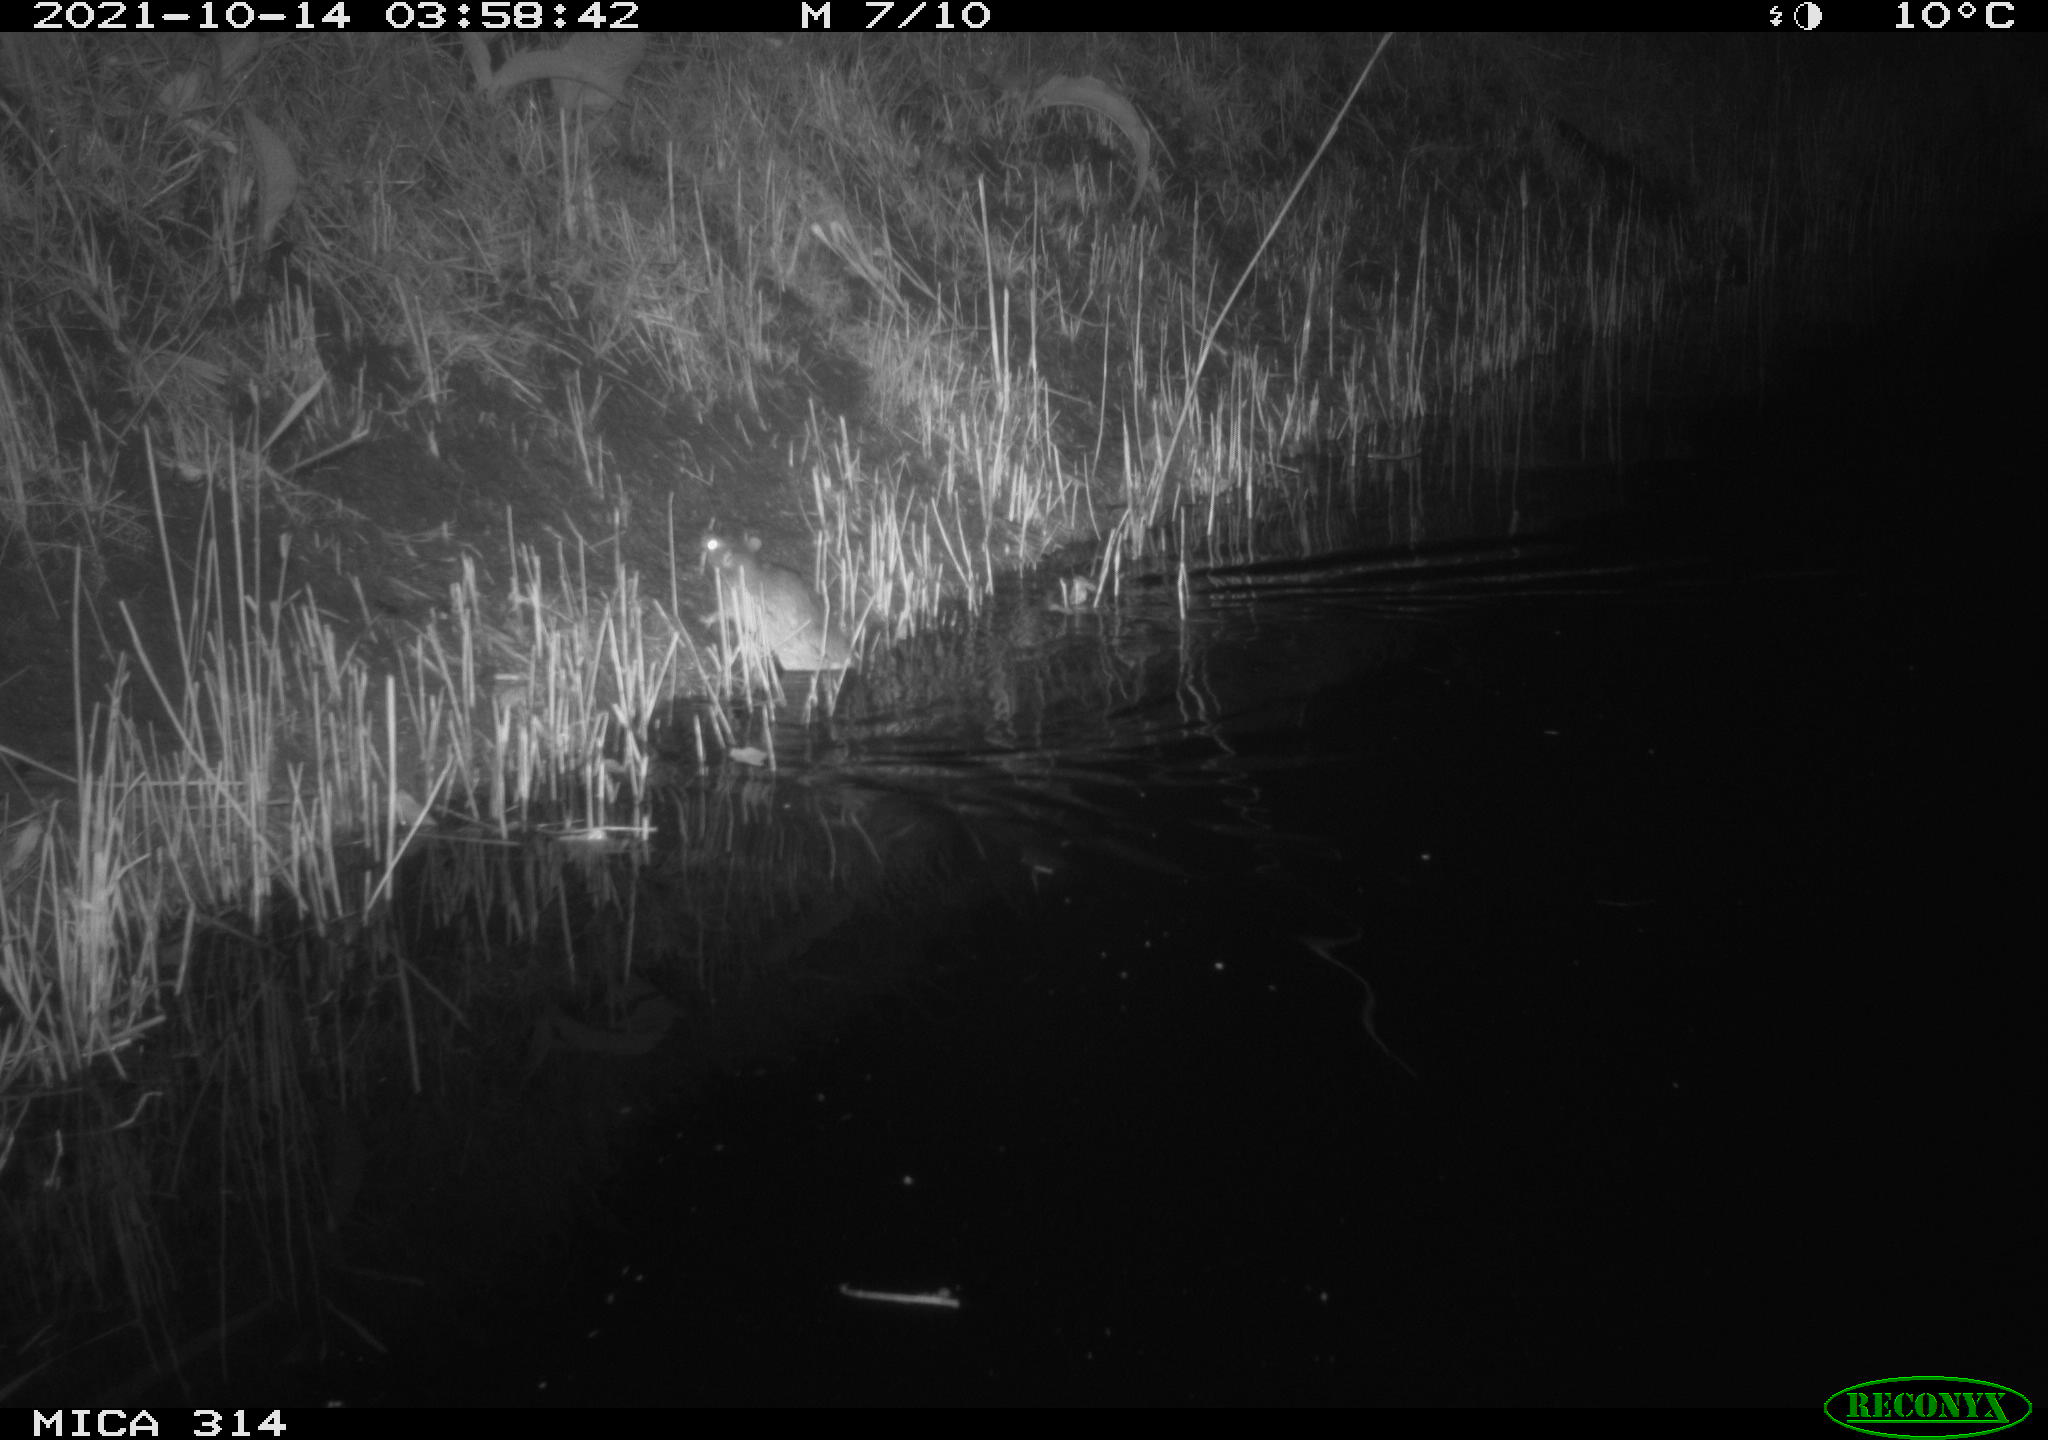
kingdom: Animalia
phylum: Chordata
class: Mammalia
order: Rodentia
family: Muridae
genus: Rattus
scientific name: Rattus norvegicus
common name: Brown rat
